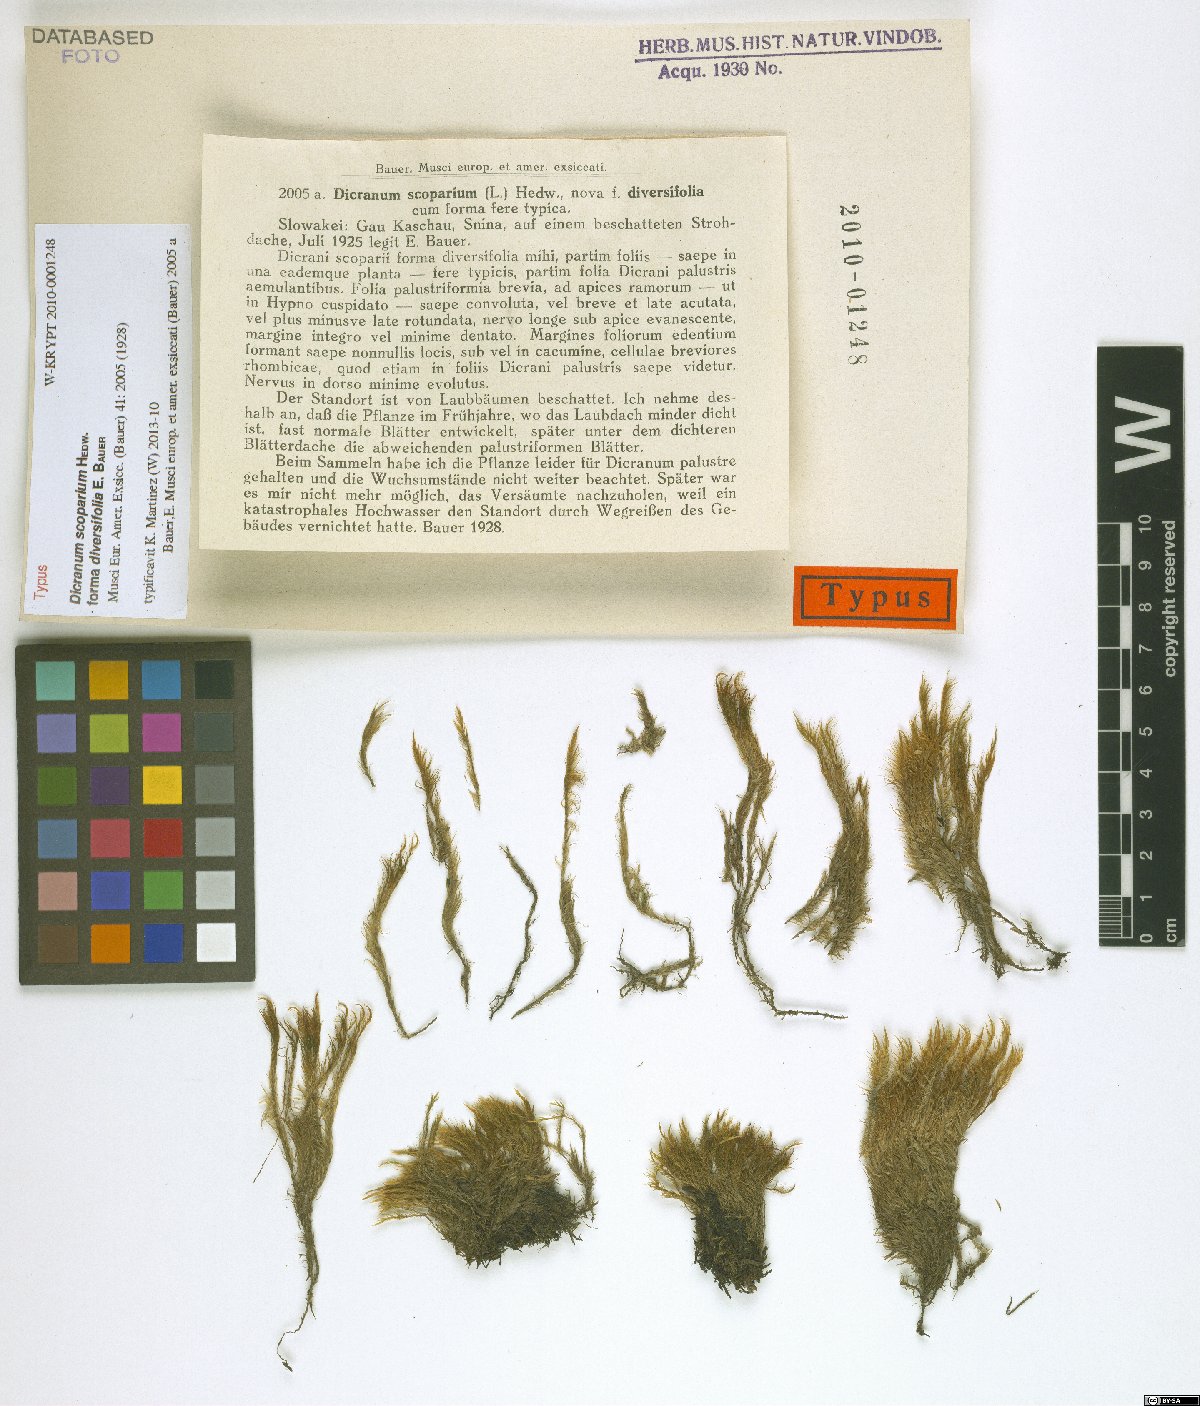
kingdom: Plantae
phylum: Bryophyta
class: Bryopsida
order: Dicranales
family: Dicranaceae
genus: Dicranum
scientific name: Dicranum scoparium
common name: Broom fork-moss
